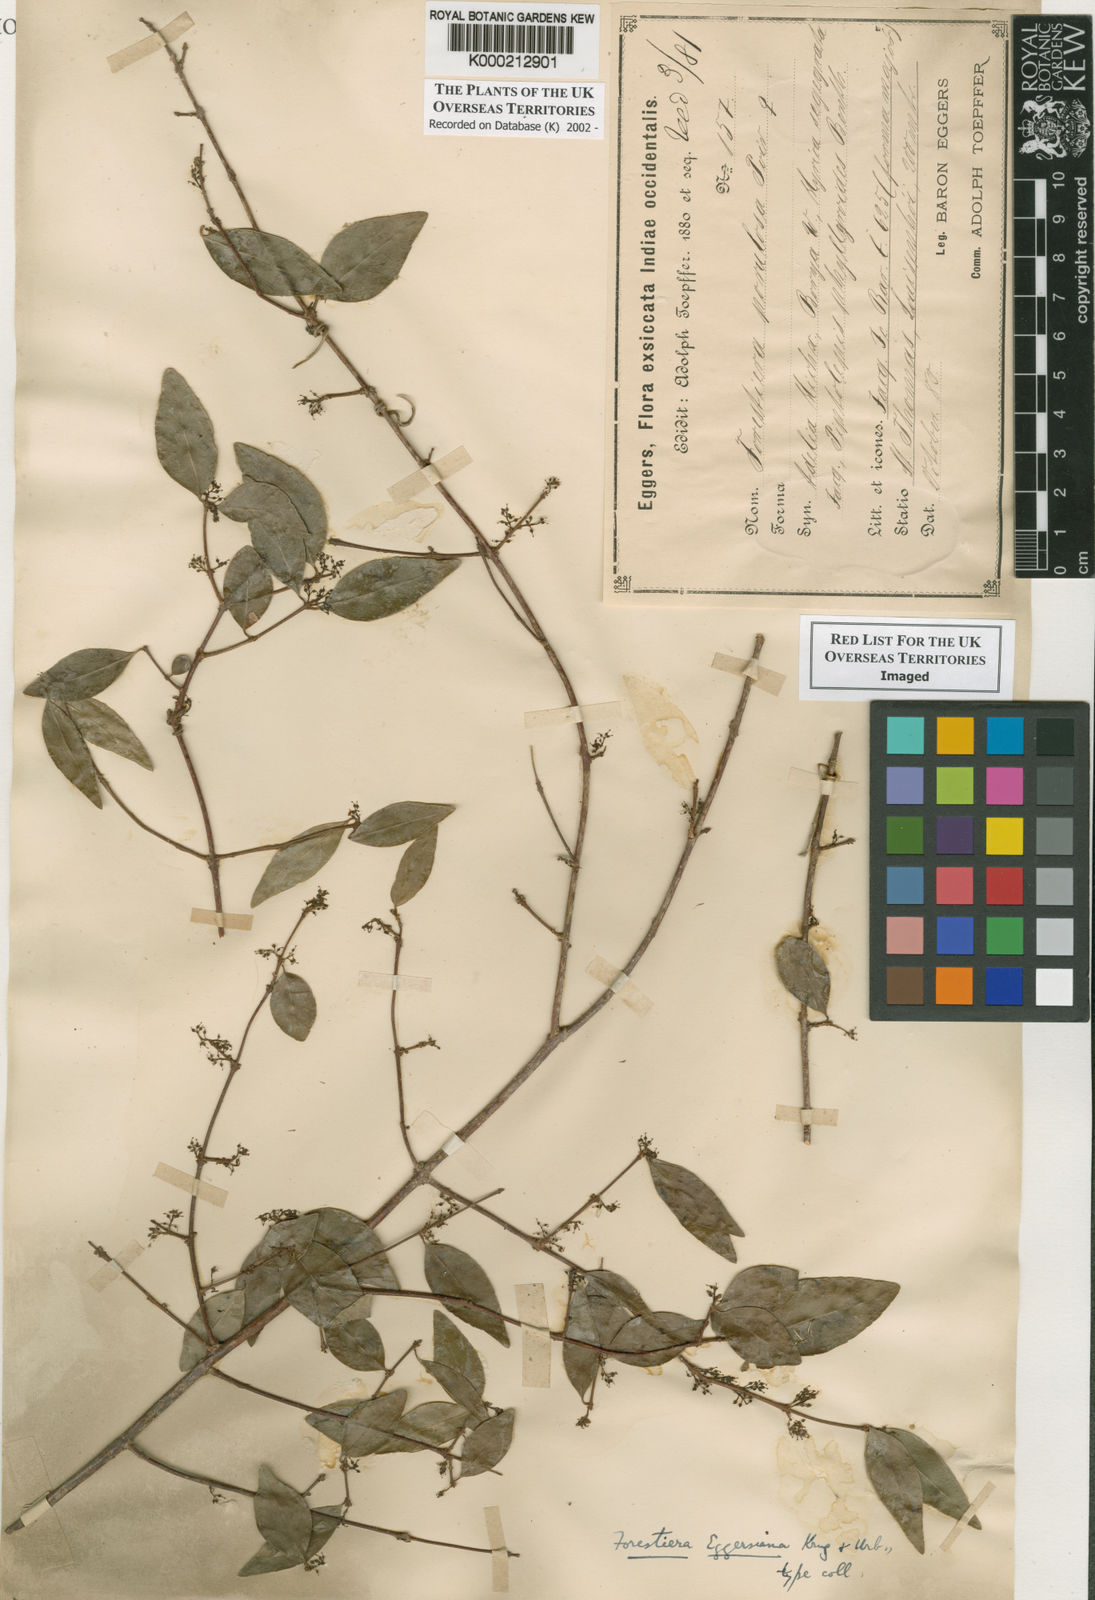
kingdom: Plantae
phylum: Tracheophyta
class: Magnoliopsida
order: Lamiales
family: Oleaceae
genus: Forestiera
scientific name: Forestiera eggersiana
